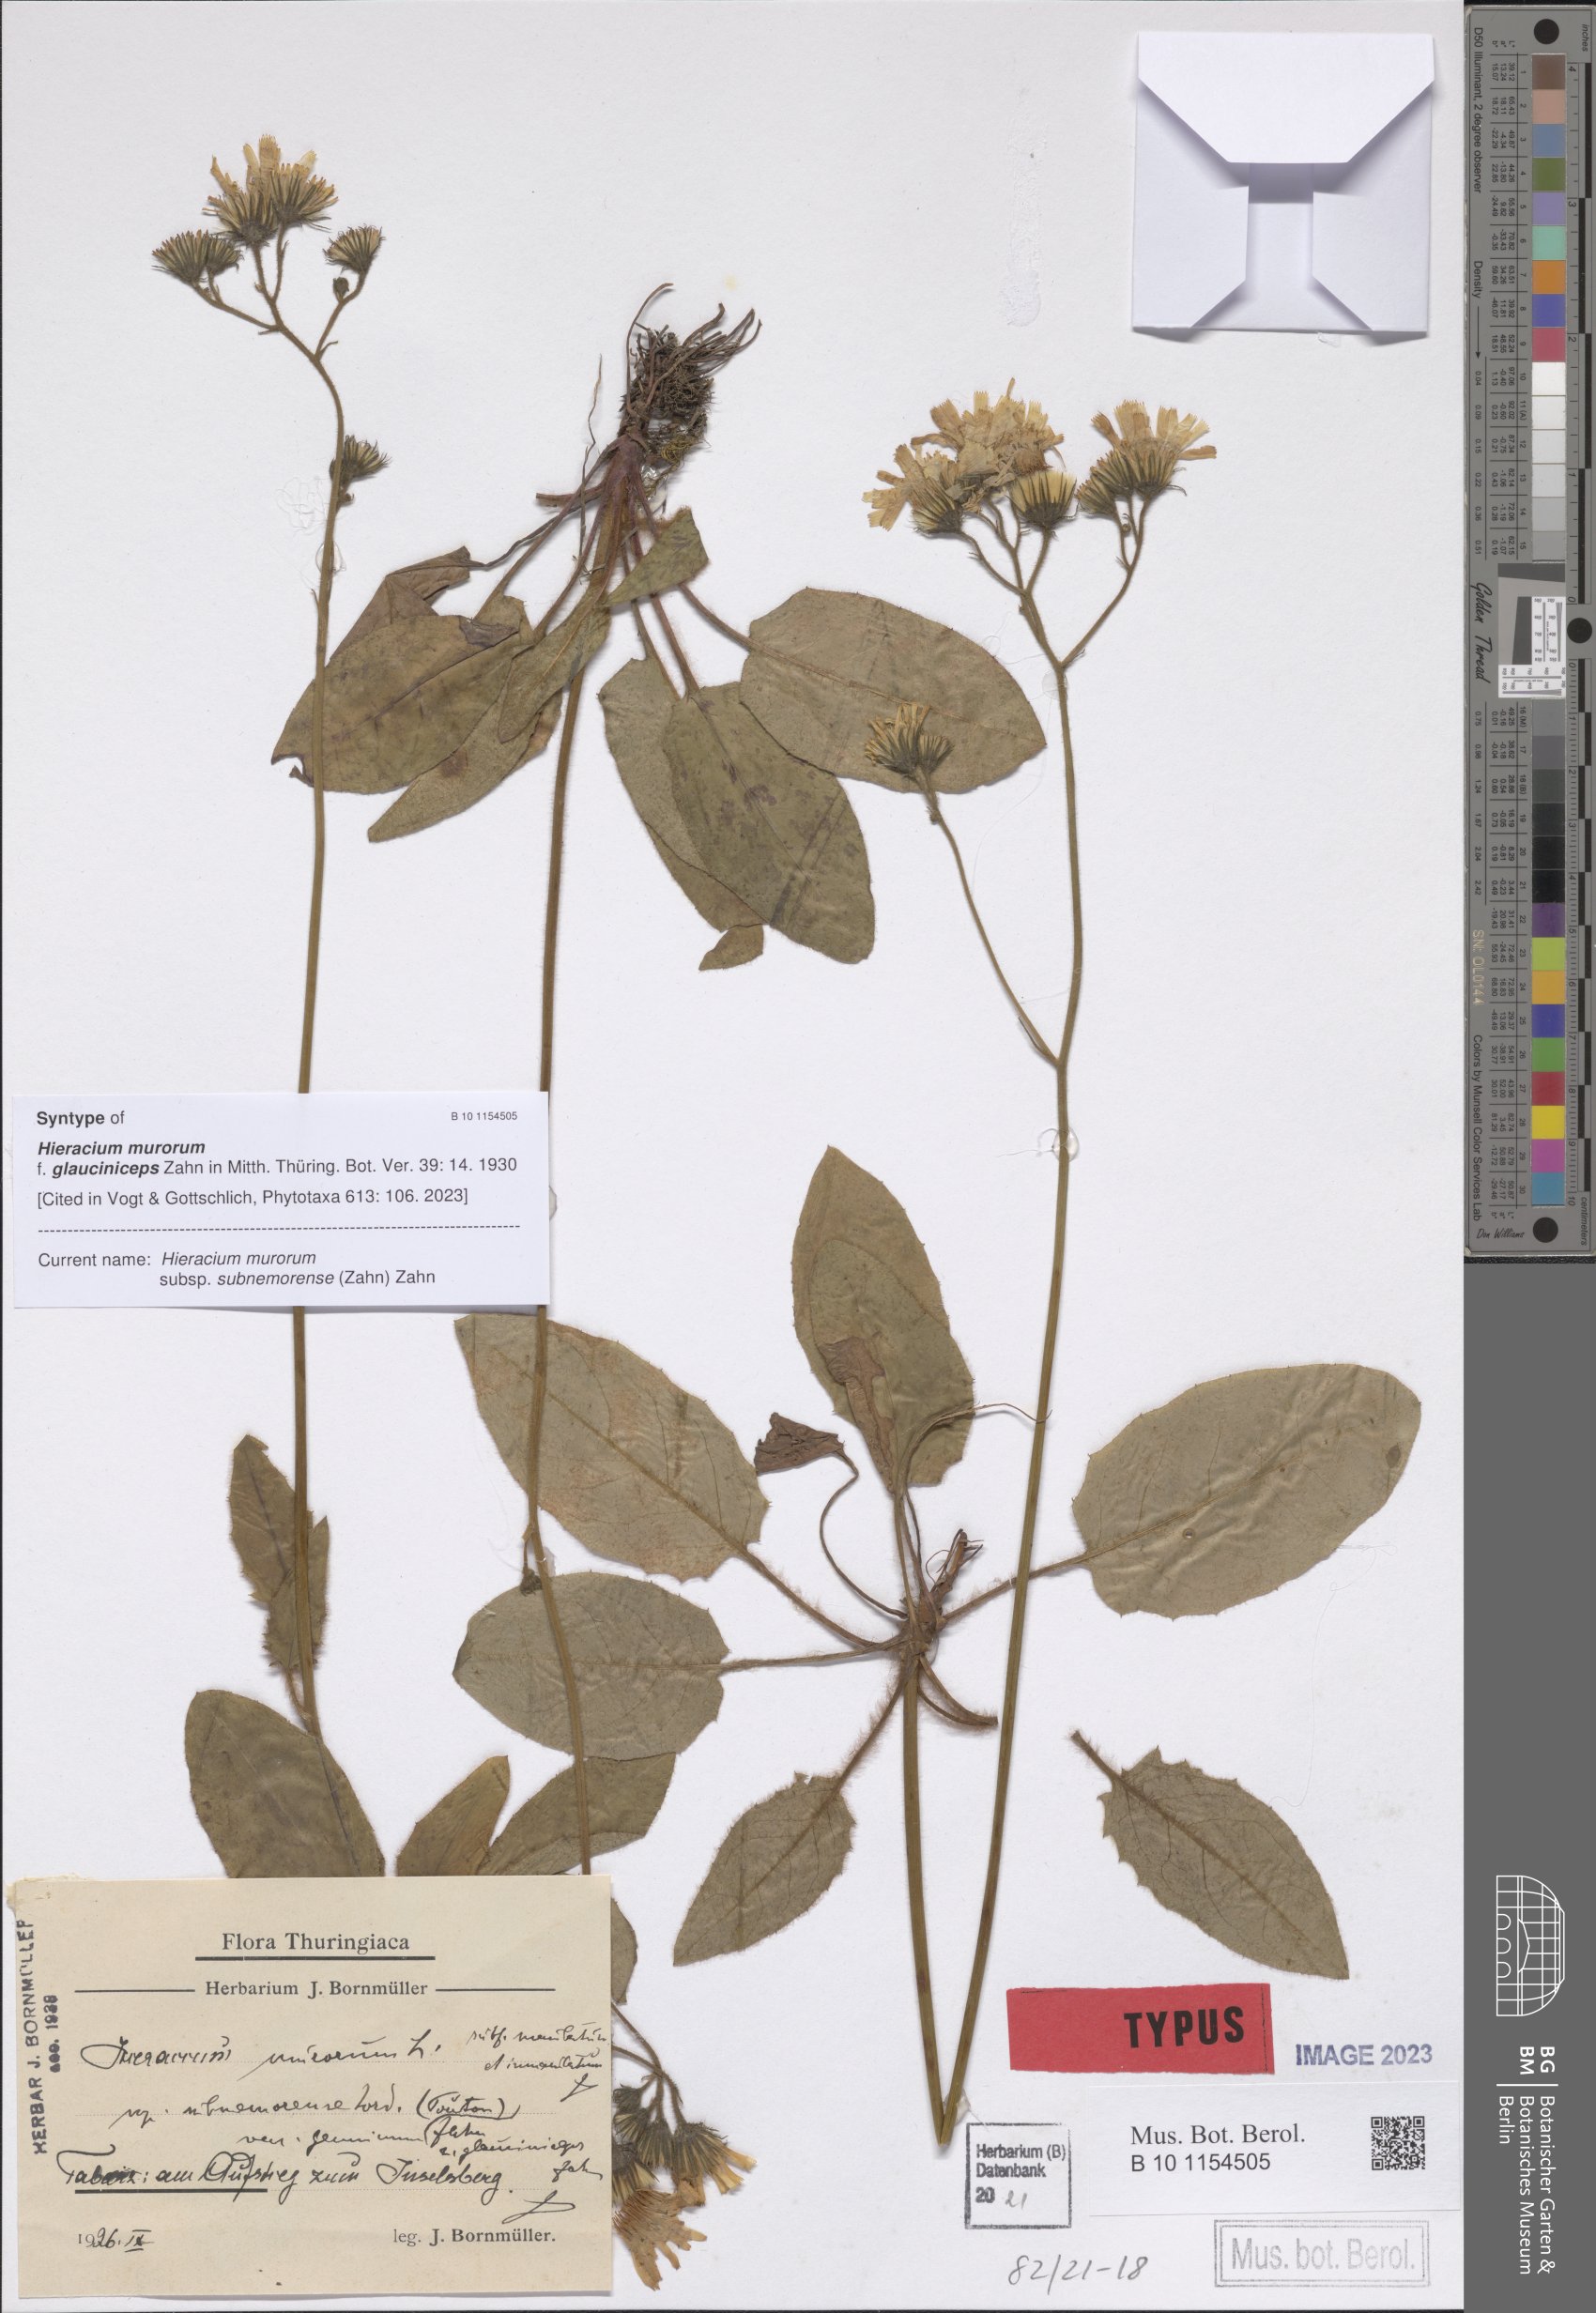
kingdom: Plantae
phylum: Tracheophyta
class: Magnoliopsida
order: Asterales
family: Asteraceae
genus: Hieracium
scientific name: Hieracium murorum
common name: Wall hawkweed
